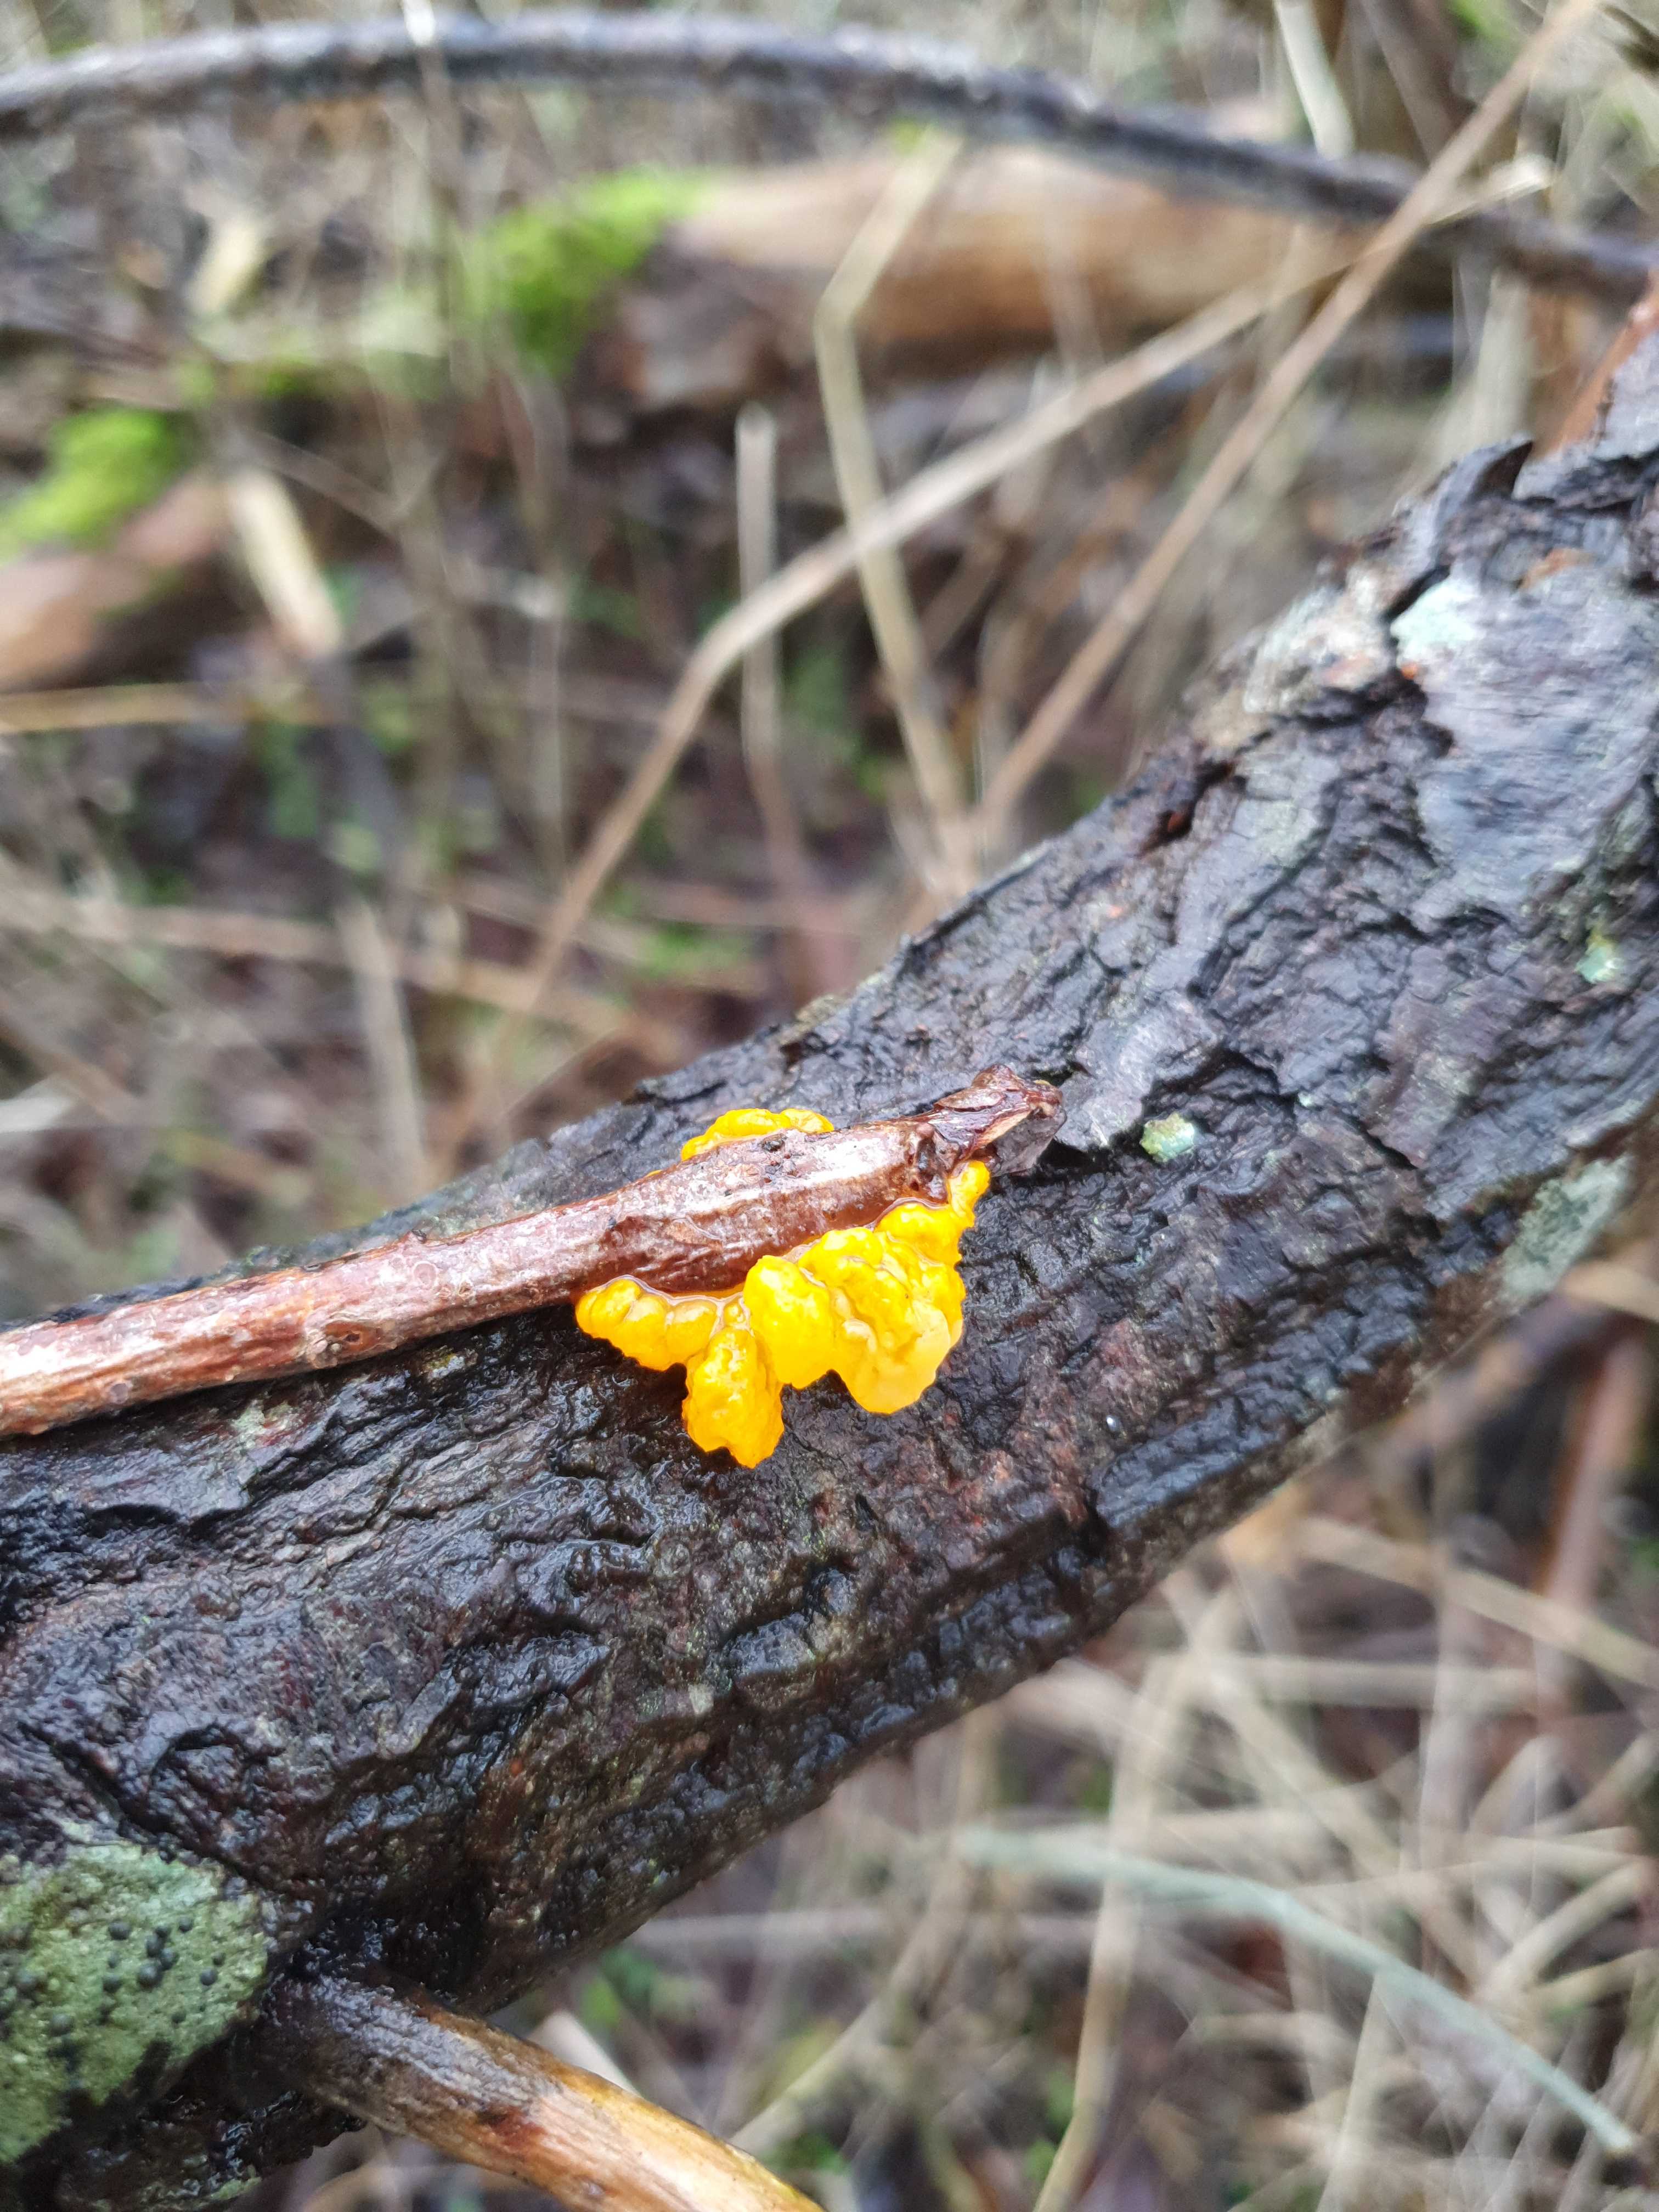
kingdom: Fungi
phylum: Basidiomycota
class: Tremellomycetes
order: Tremellales
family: Tremellaceae
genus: Tremella
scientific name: Tremella mesenterica
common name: gul bævresvamp
